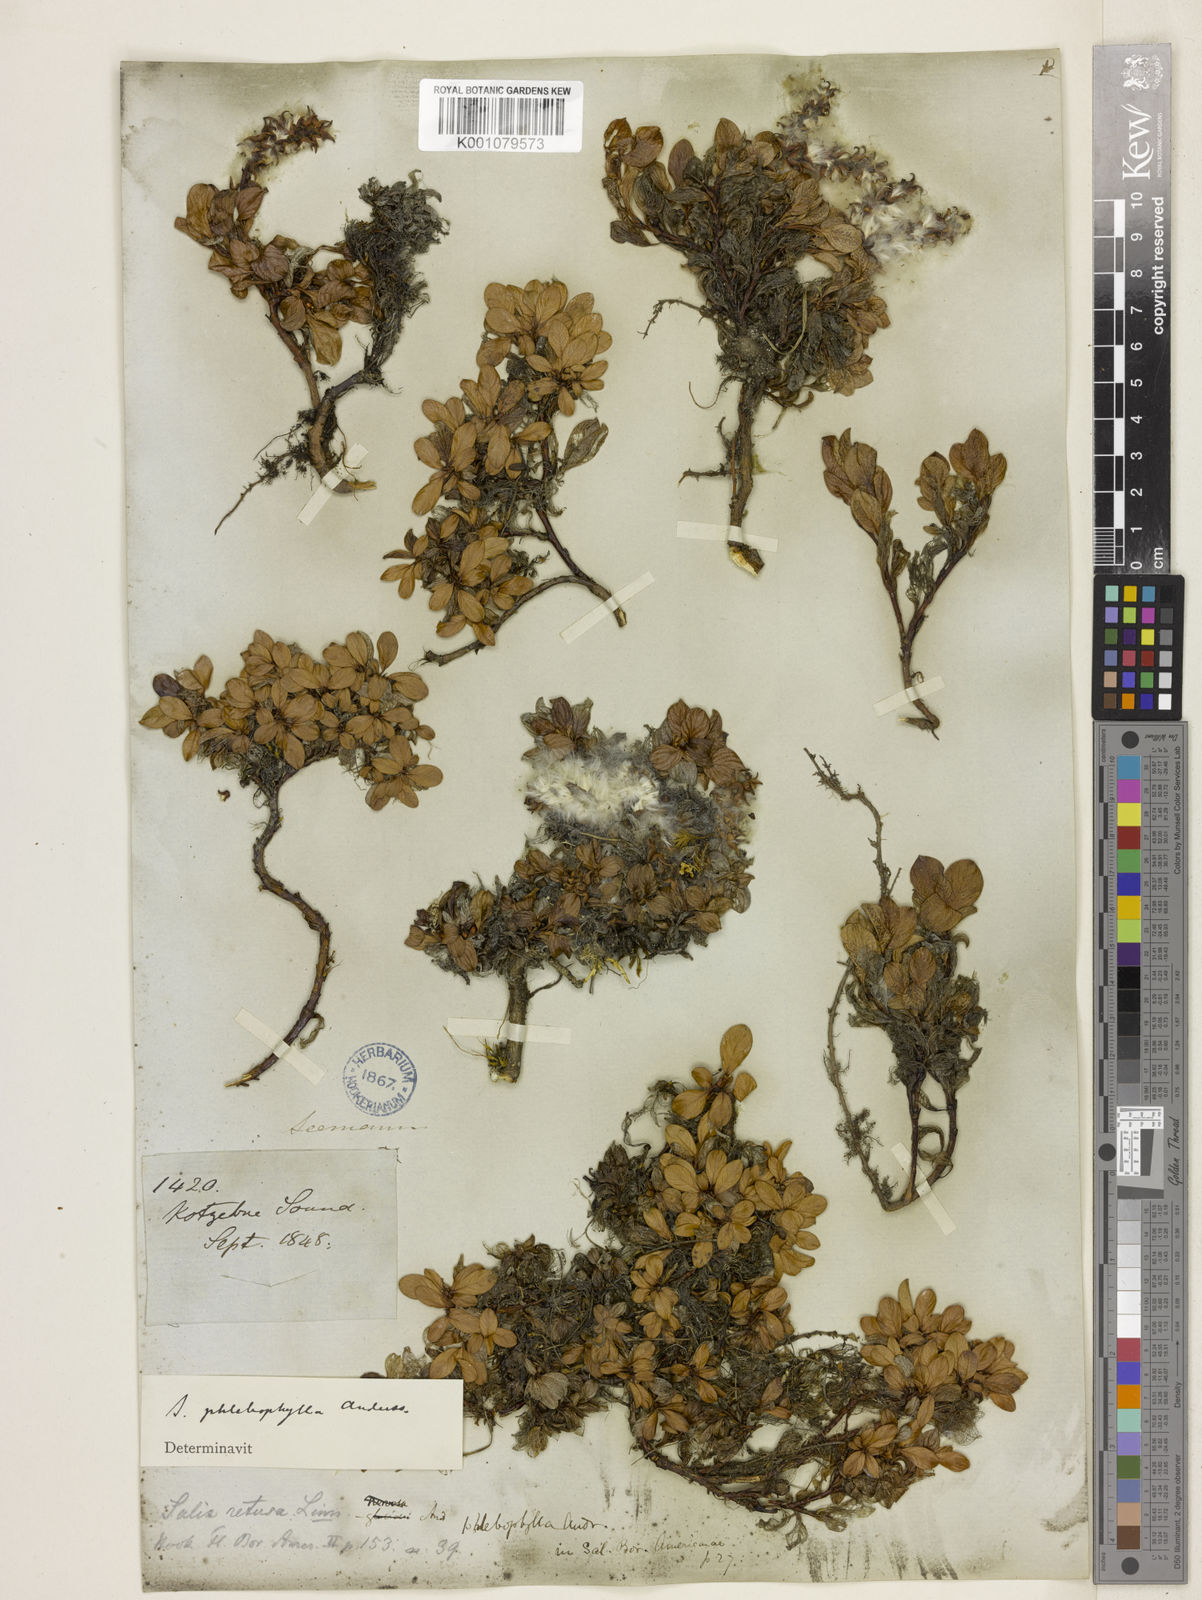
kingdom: Plantae
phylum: Tracheophyta
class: Magnoliopsida
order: Malpighiales
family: Salicaceae
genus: Salix
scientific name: Salix phlebophylla
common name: Skeleton-leaved willow
